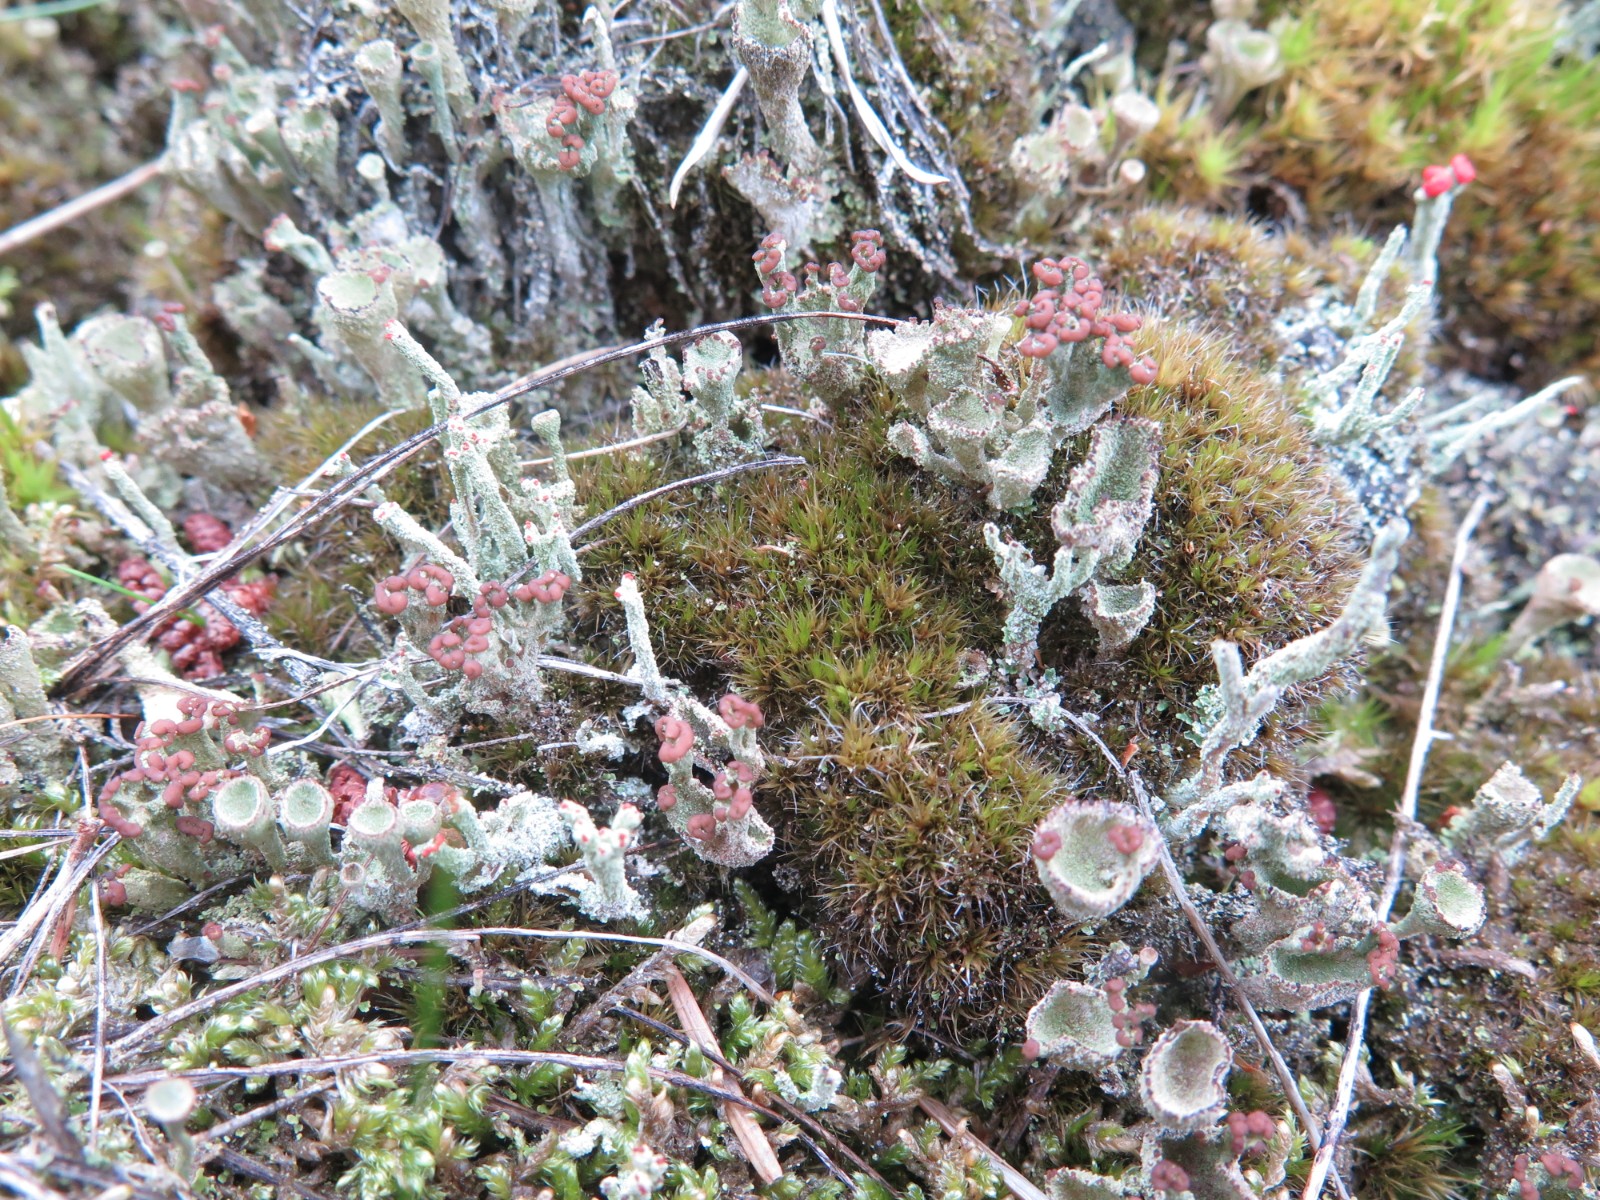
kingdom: Fungi
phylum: Ascomycota
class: Lecanoromycetes
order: Lecanorales
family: Cladoniaceae
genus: Cladonia
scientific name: Cladonia ramulosa
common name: kliddet bægerlav
